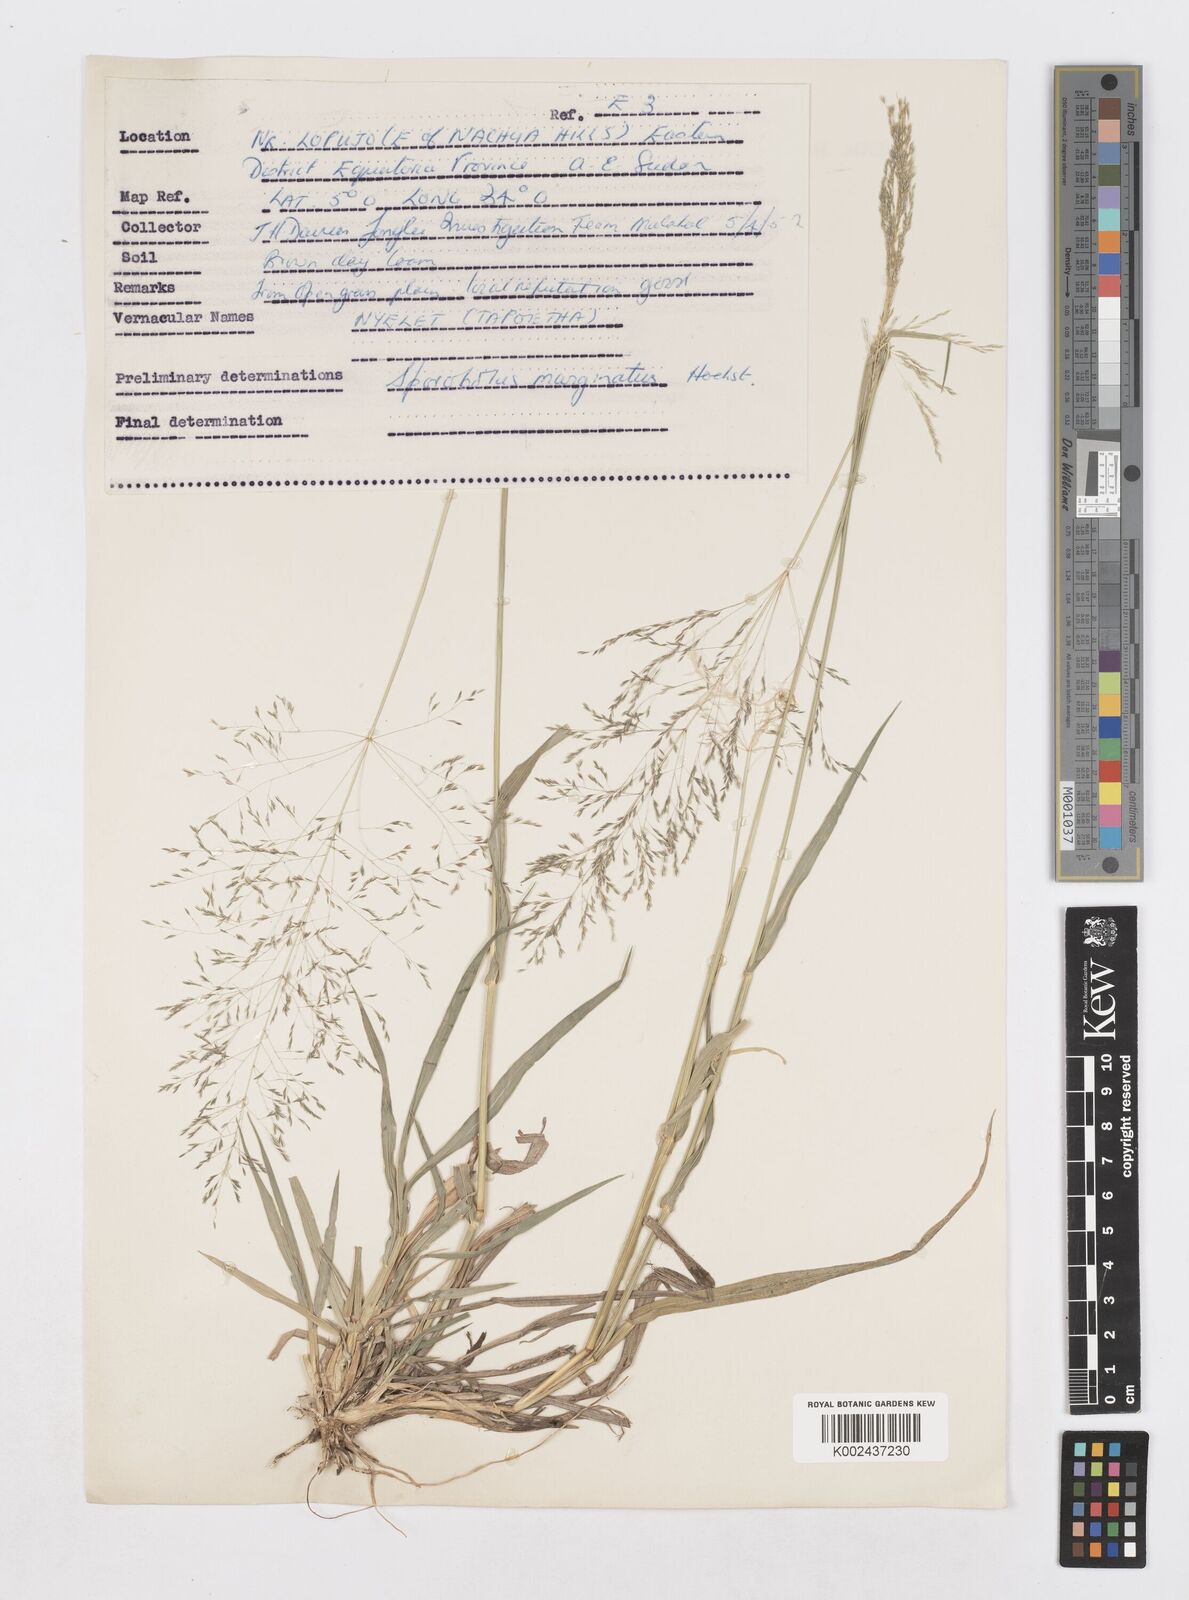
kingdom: Plantae
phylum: Tracheophyta
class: Liliopsida
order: Poales
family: Poaceae
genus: Sporobolus
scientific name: Sporobolus ioclados
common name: Pan dropseed
